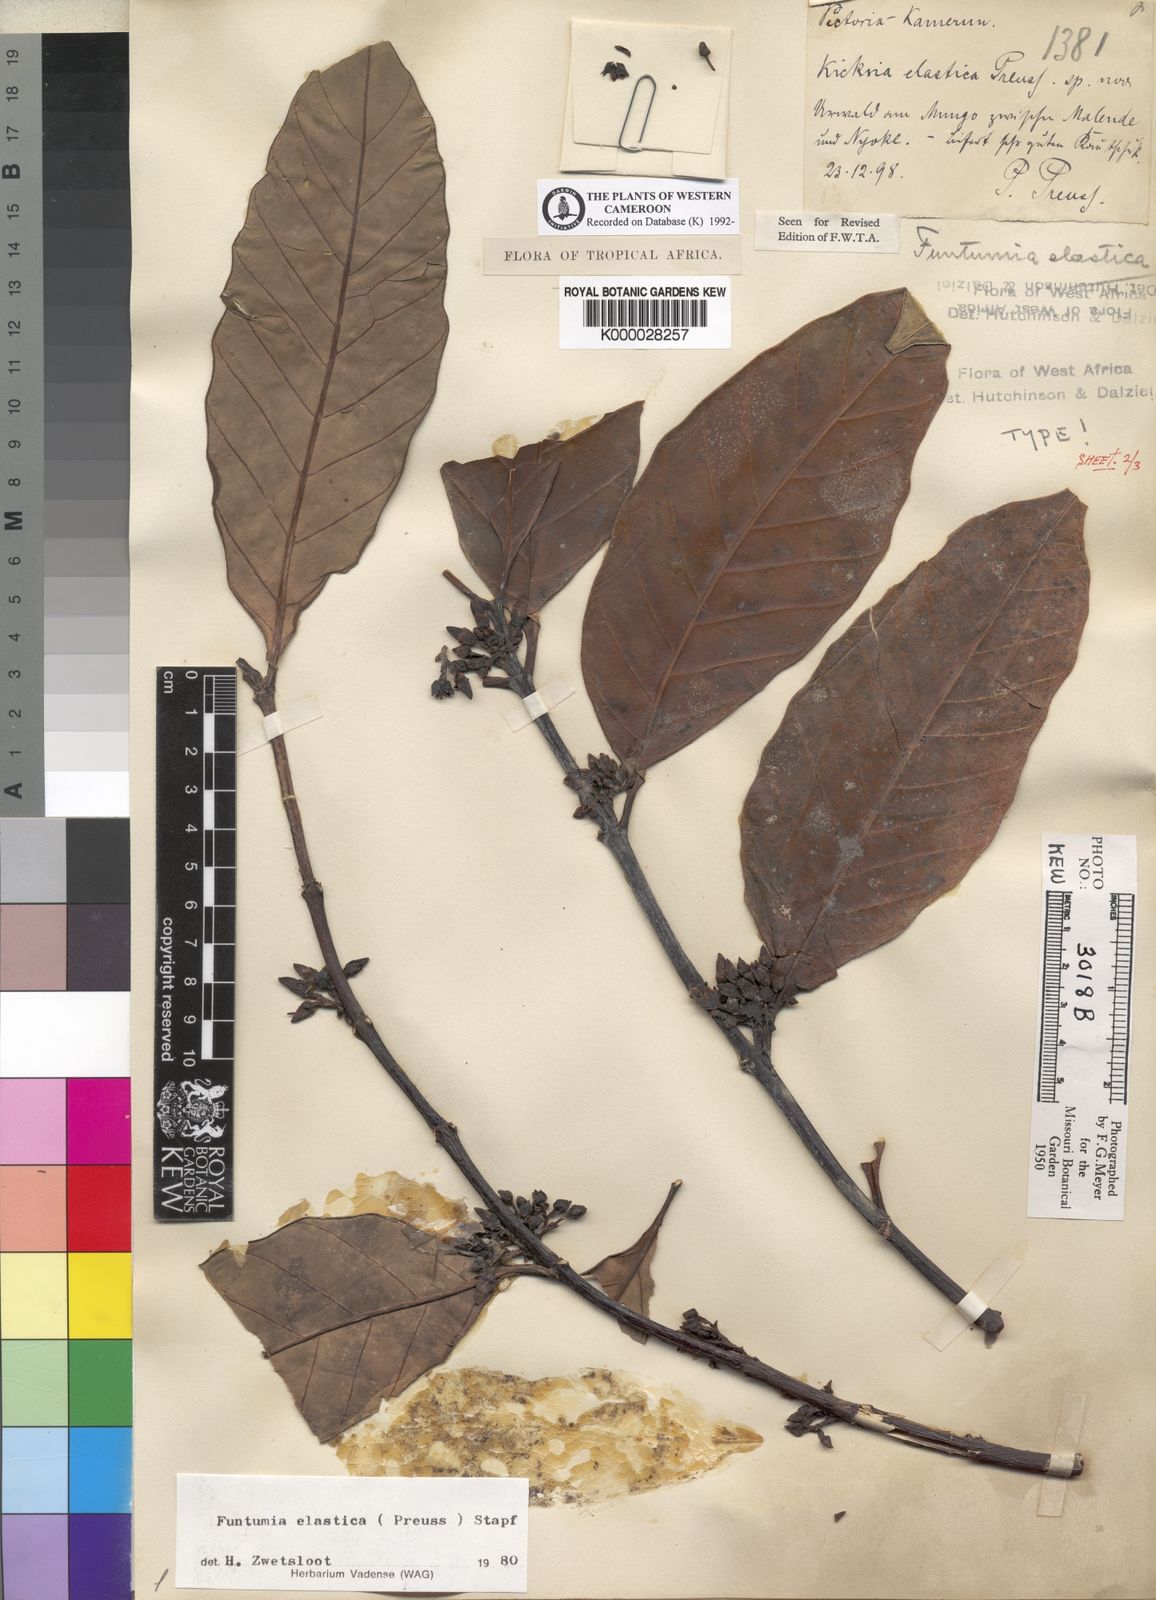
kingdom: Plantae
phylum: Tracheophyta
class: Magnoliopsida
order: Gentianales
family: Apocynaceae
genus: Funtumia
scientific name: Funtumia elastica
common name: Silkrubber
